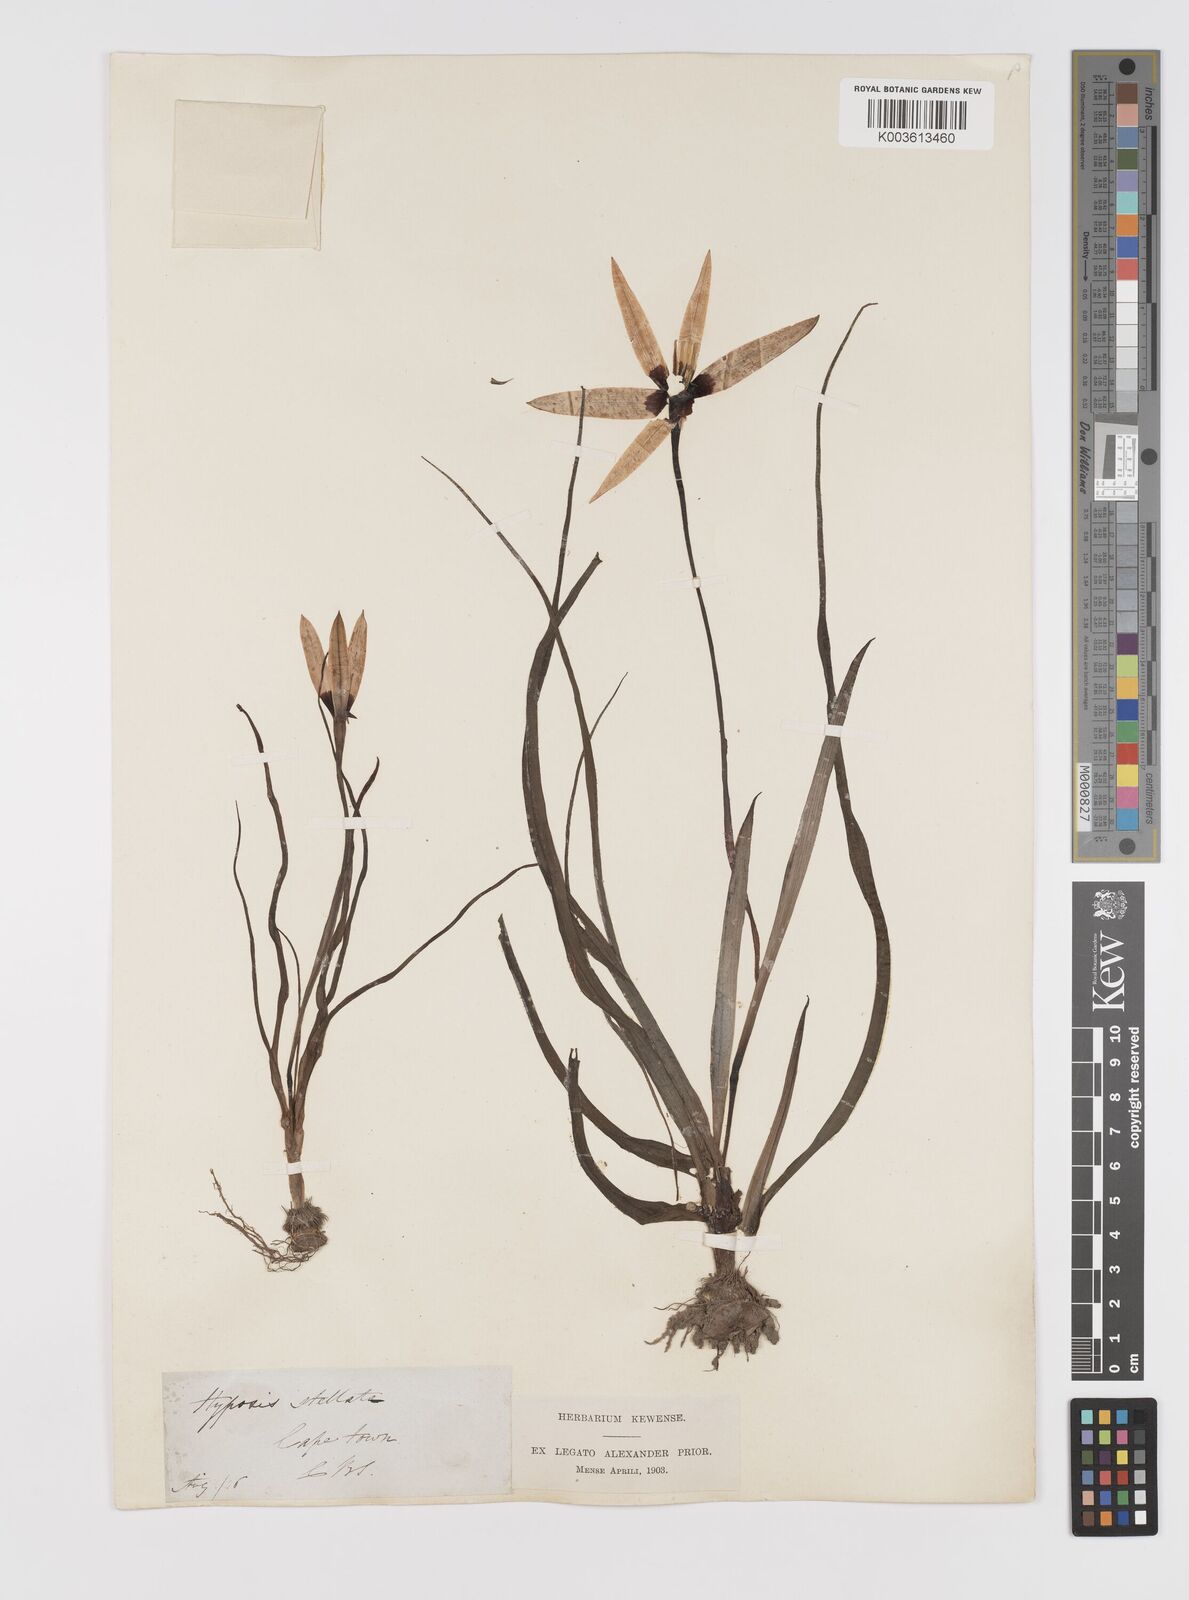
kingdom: Plantae
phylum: Tracheophyta
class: Liliopsida
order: Asparagales
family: Hypoxidaceae
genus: Pauridia
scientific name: Pauridia capensis
